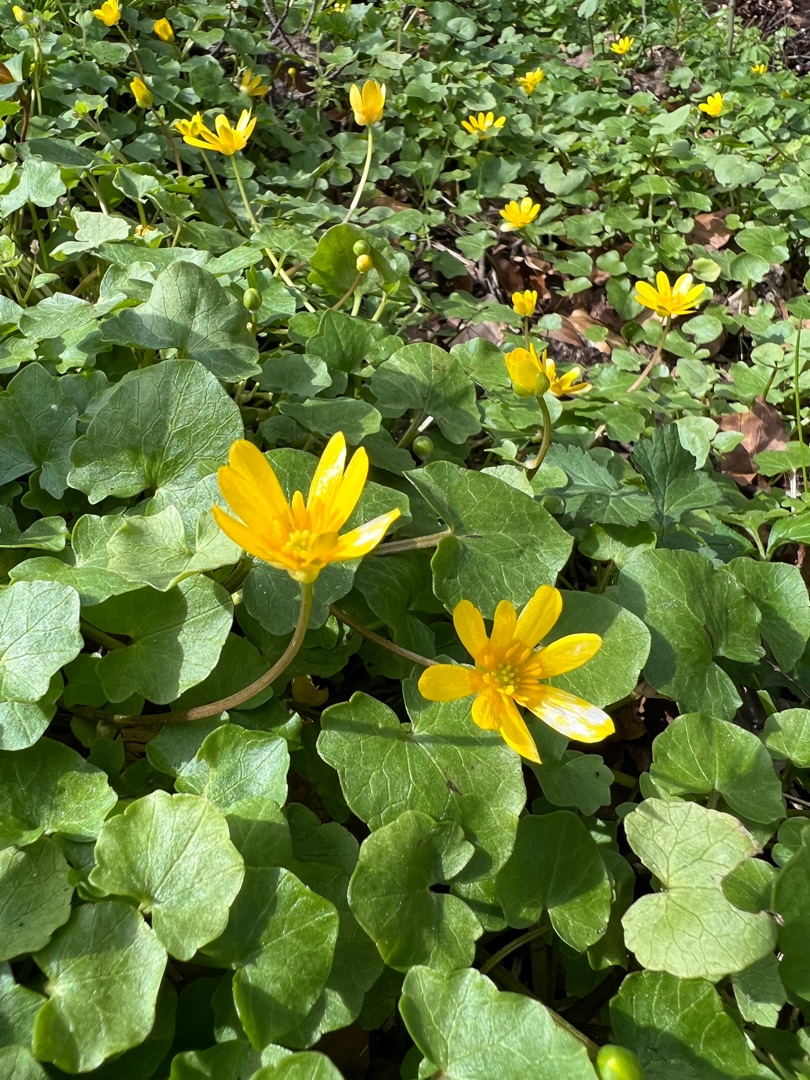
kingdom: Plantae
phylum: Tracheophyta
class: Magnoliopsida
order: Ranunculales
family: Ranunculaceae
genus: Ficaria
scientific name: Ficaria verna
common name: Vorterod
